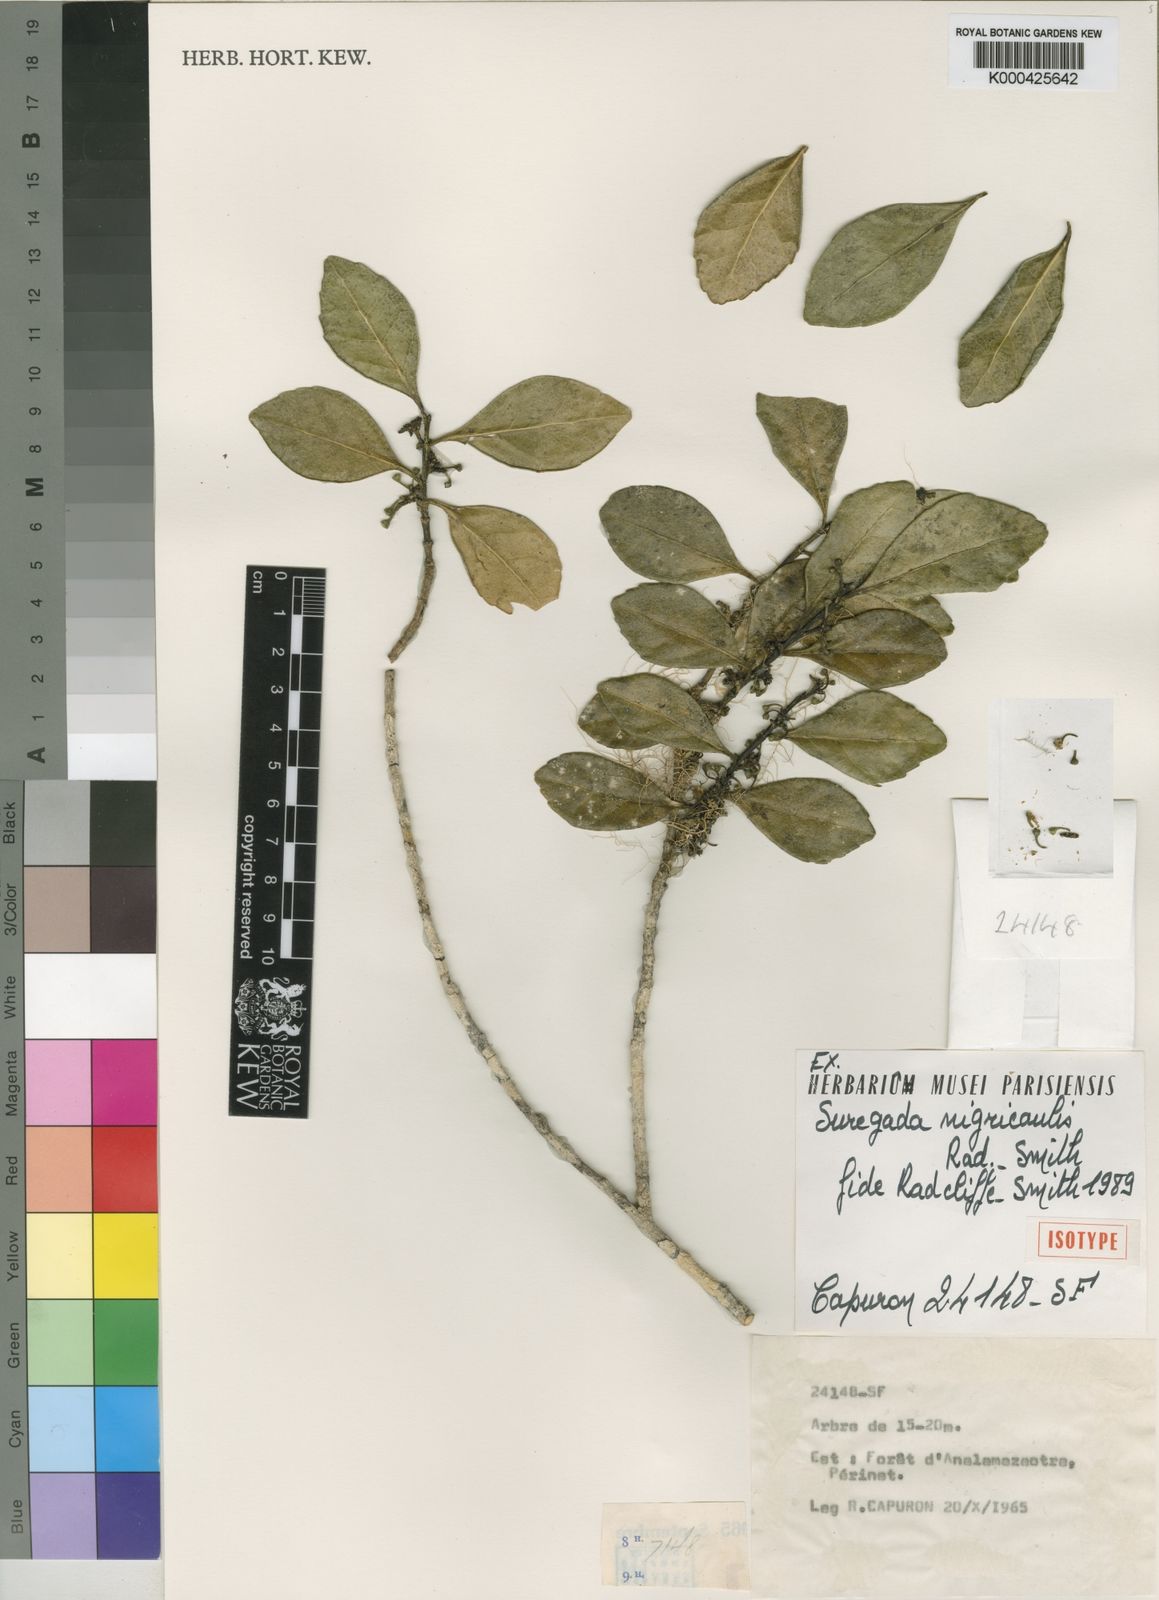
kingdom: Plantae
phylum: Tracheophyta
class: Magnoliopsida
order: Malpighiales
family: Euphorbiaceae
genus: Suregada
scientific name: Suregada nigricaulis
